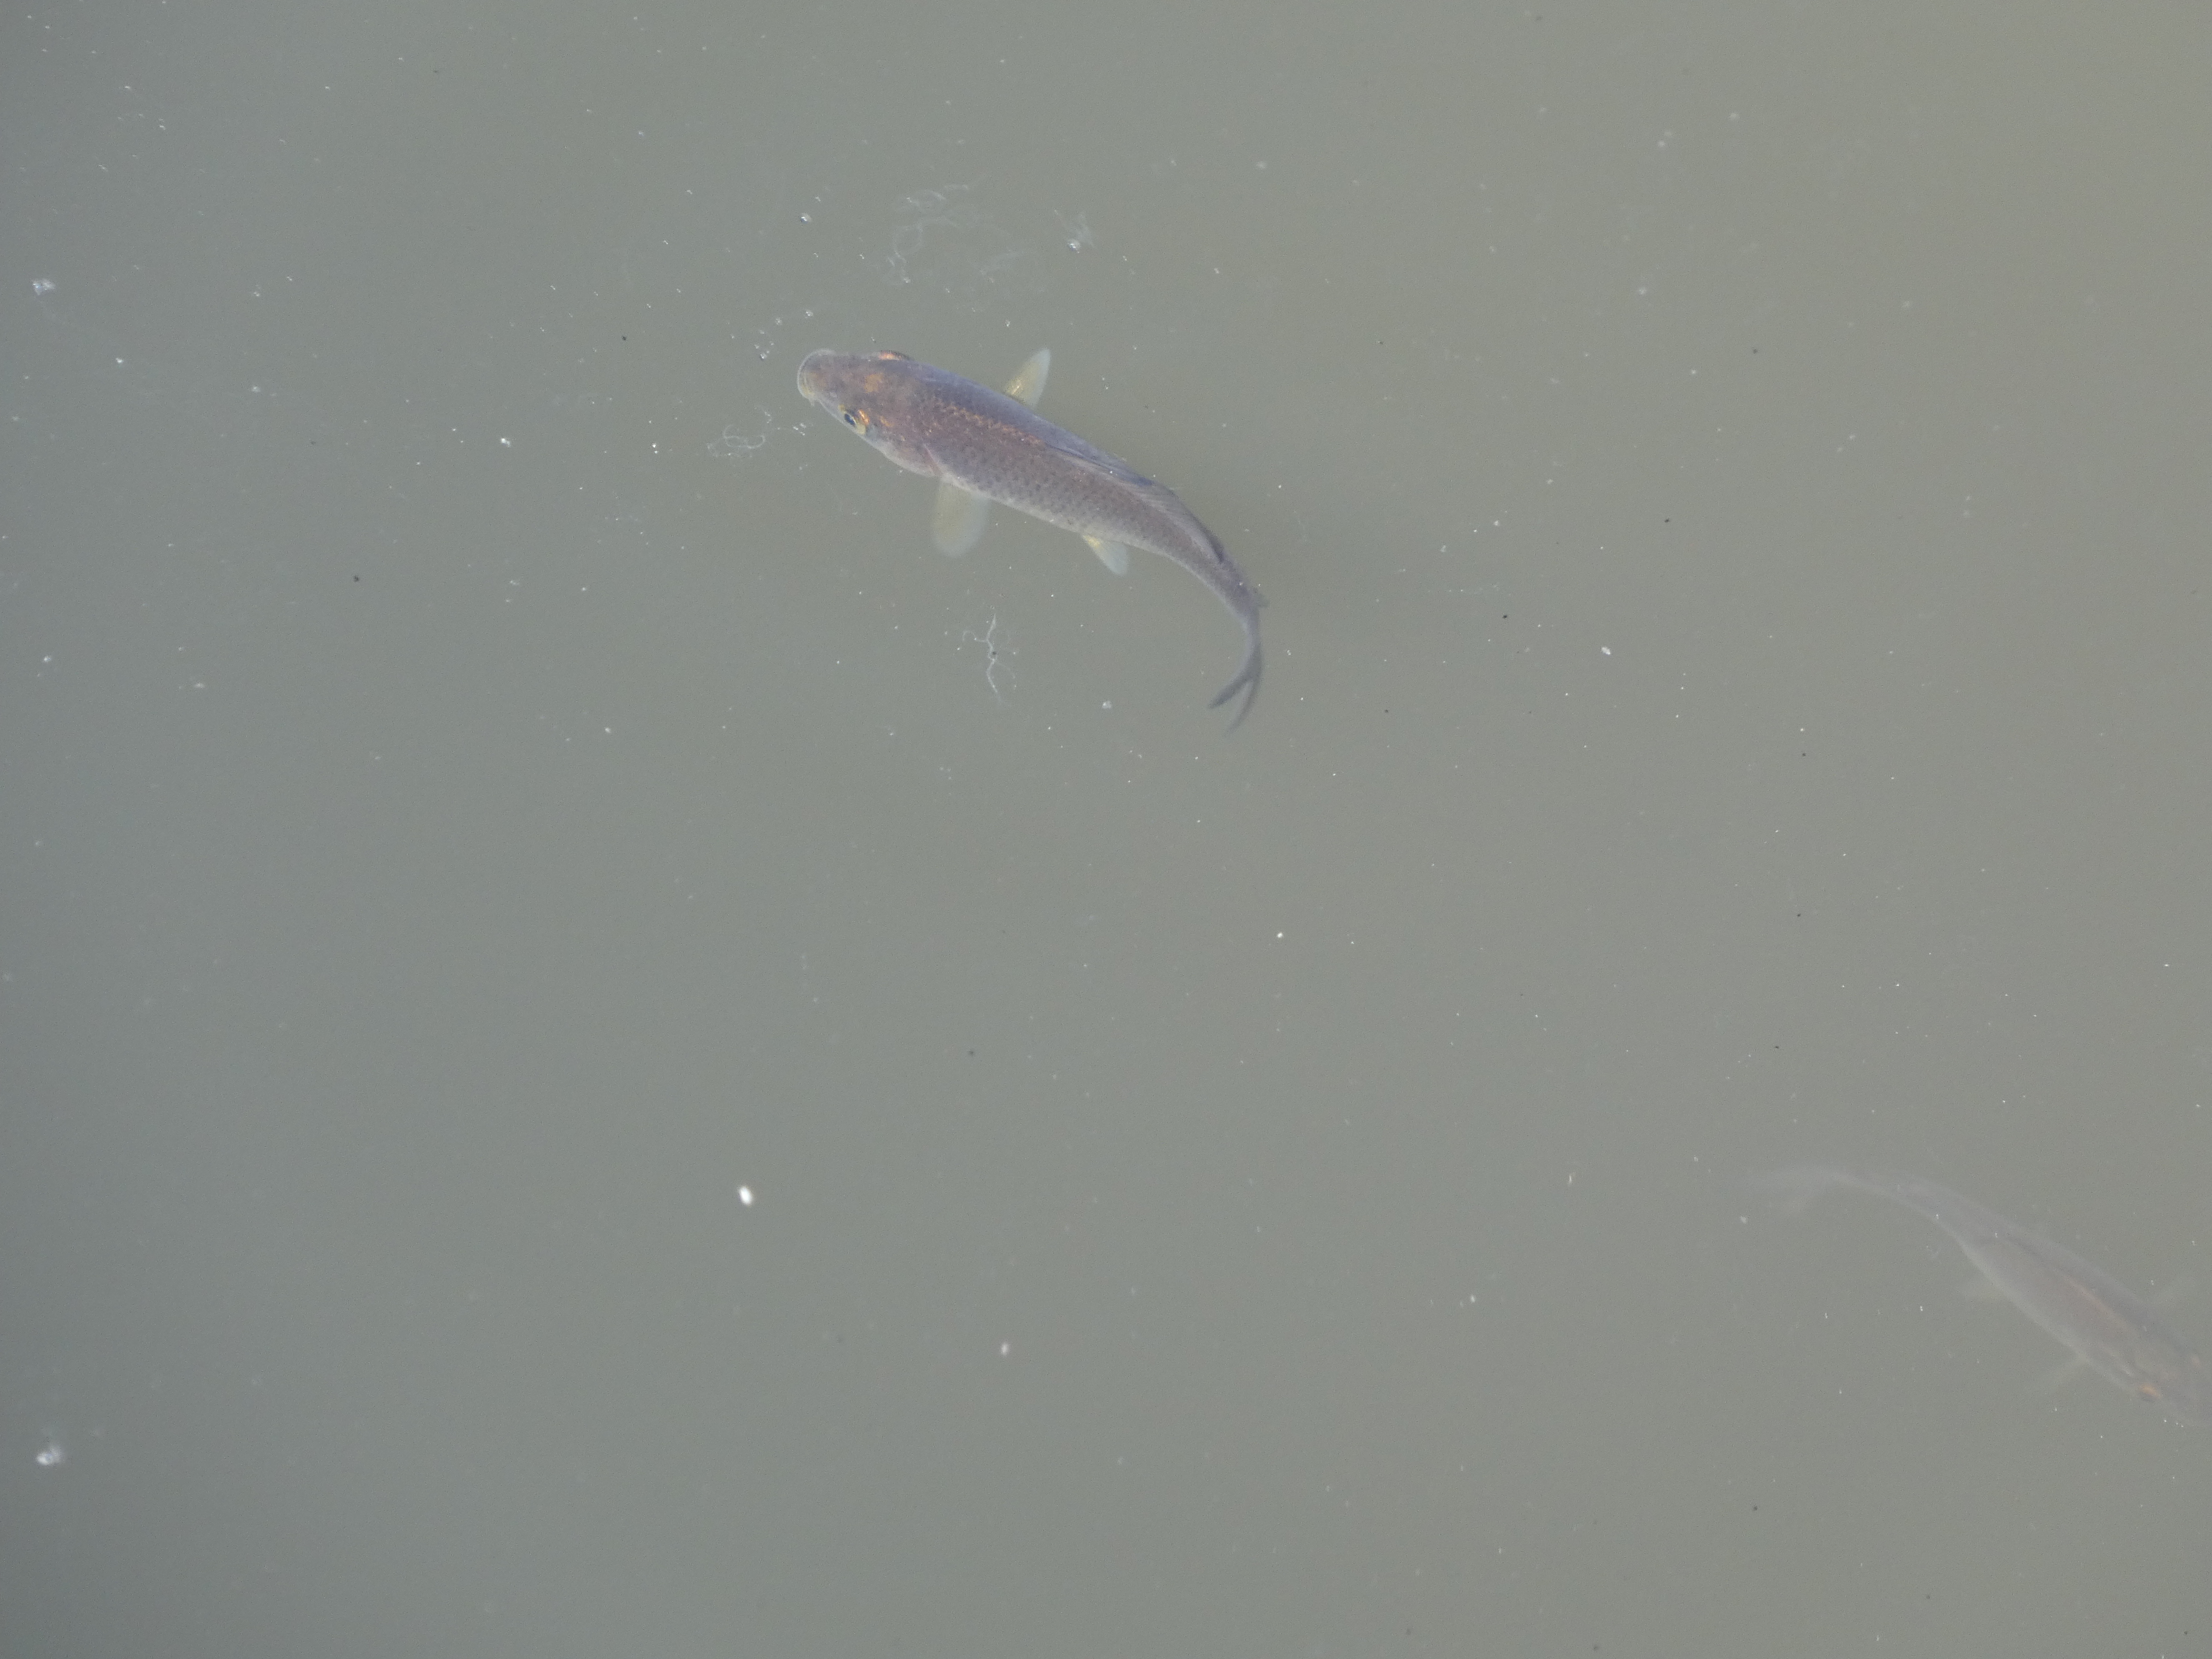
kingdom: Animalia
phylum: Chordata
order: Cypriniformes
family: Cyprinidae
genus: Cyprinus
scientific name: Cyprinus carpio
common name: Karpe
